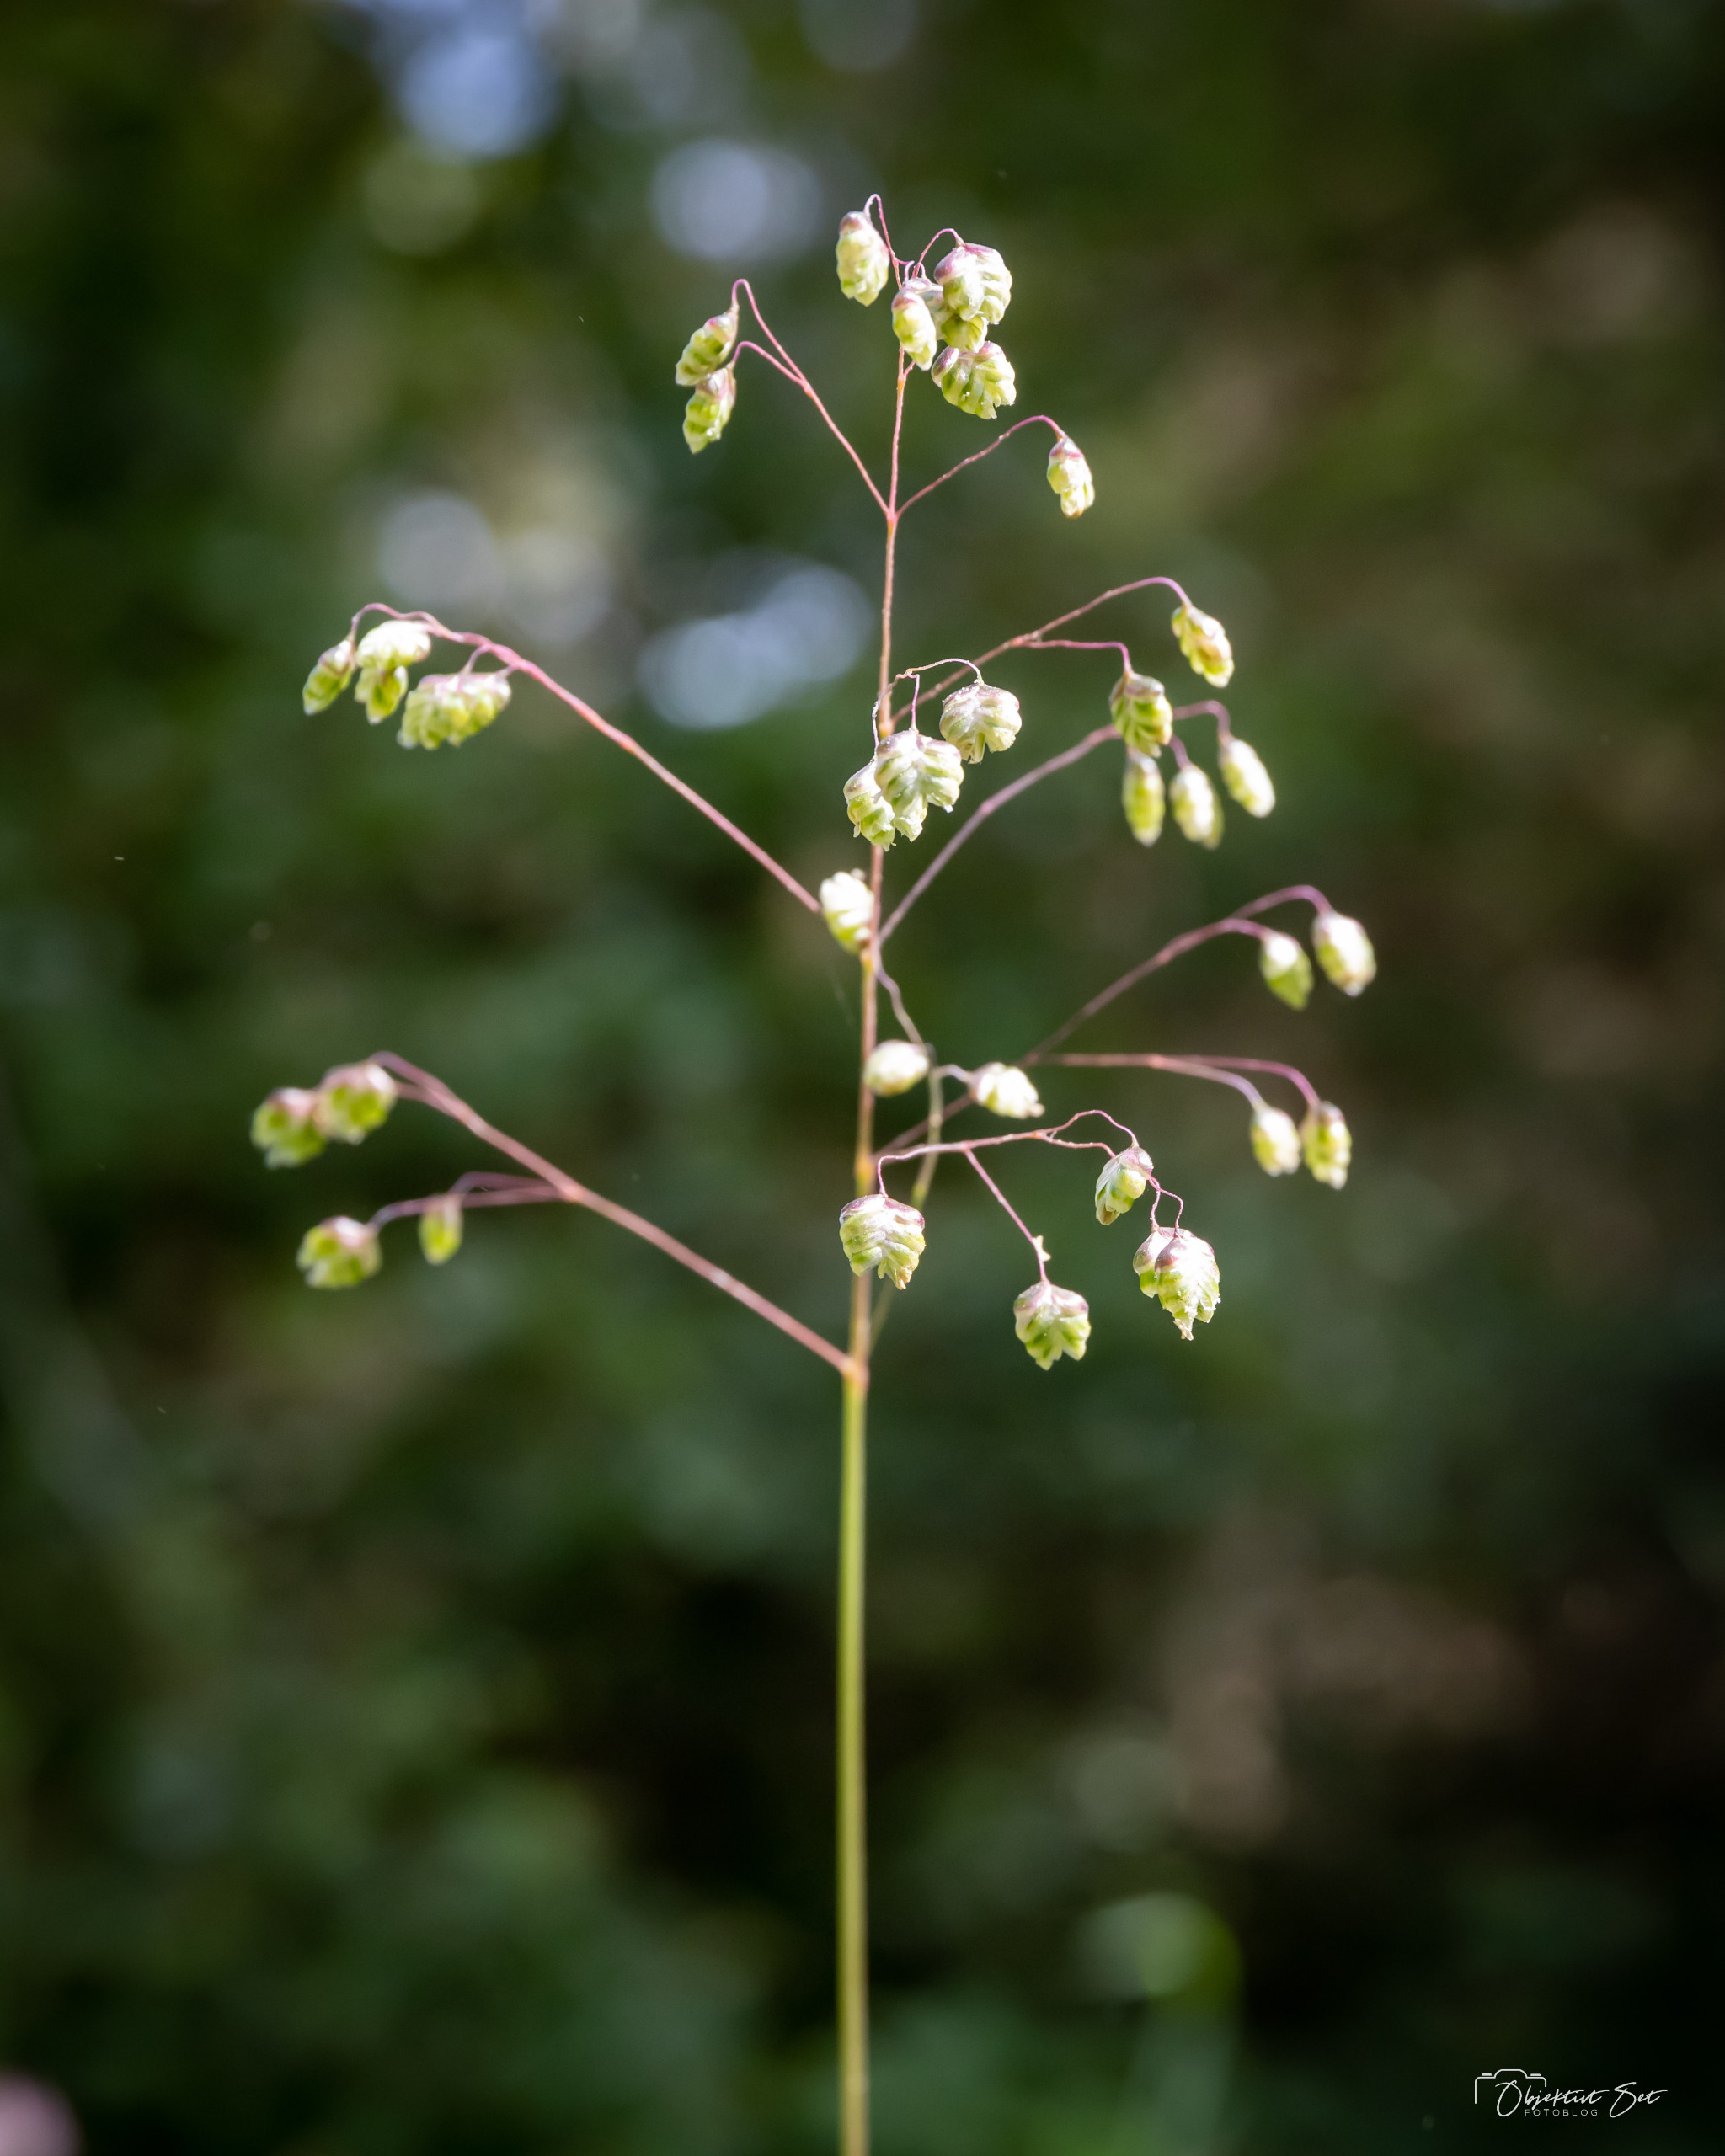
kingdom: Plantae
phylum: Tracheophyta
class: Liliopsida
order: Poales
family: Poaceae
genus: Briza
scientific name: Briza media
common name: Hjertegræs
